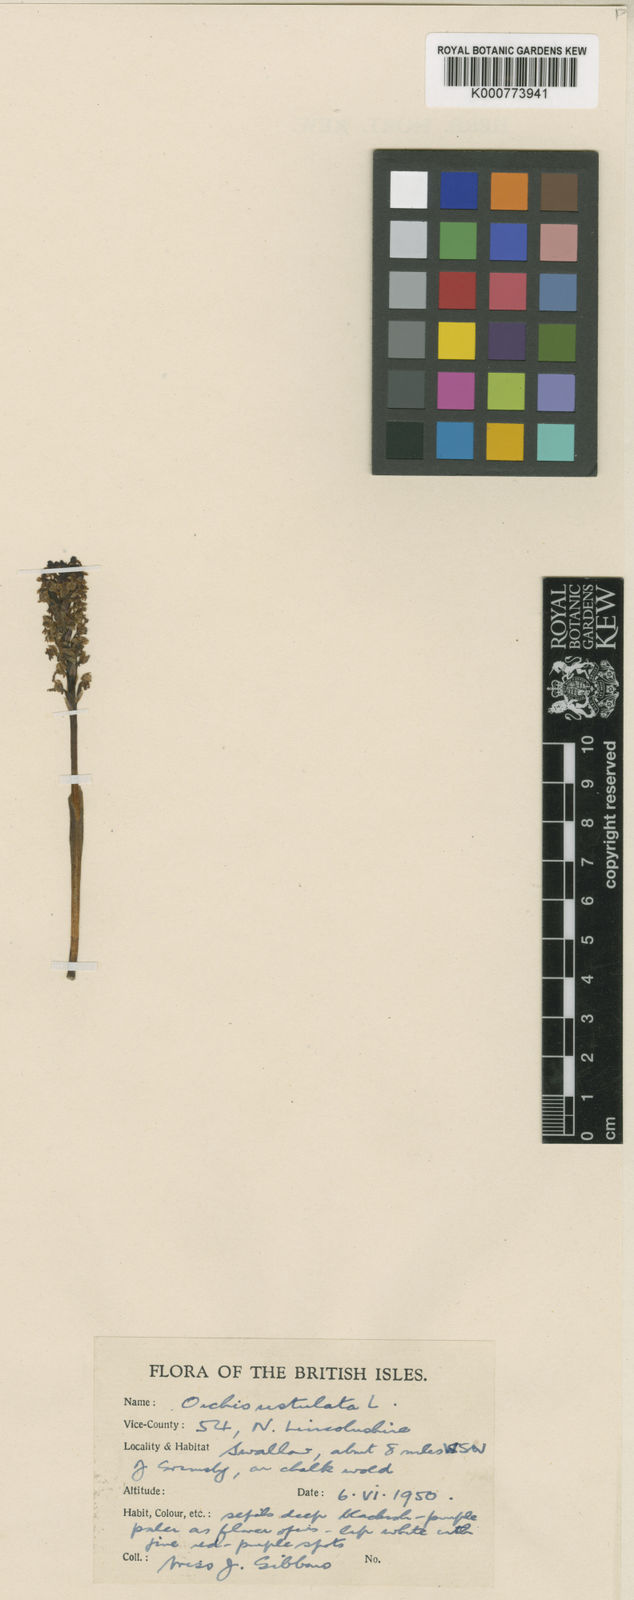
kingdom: Plantae
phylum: Tracheophyta
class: Liliopsida
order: Asparagales
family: Orchidaceae
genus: Neotinea
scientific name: Neotinea ustulata
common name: Burnt orchid
